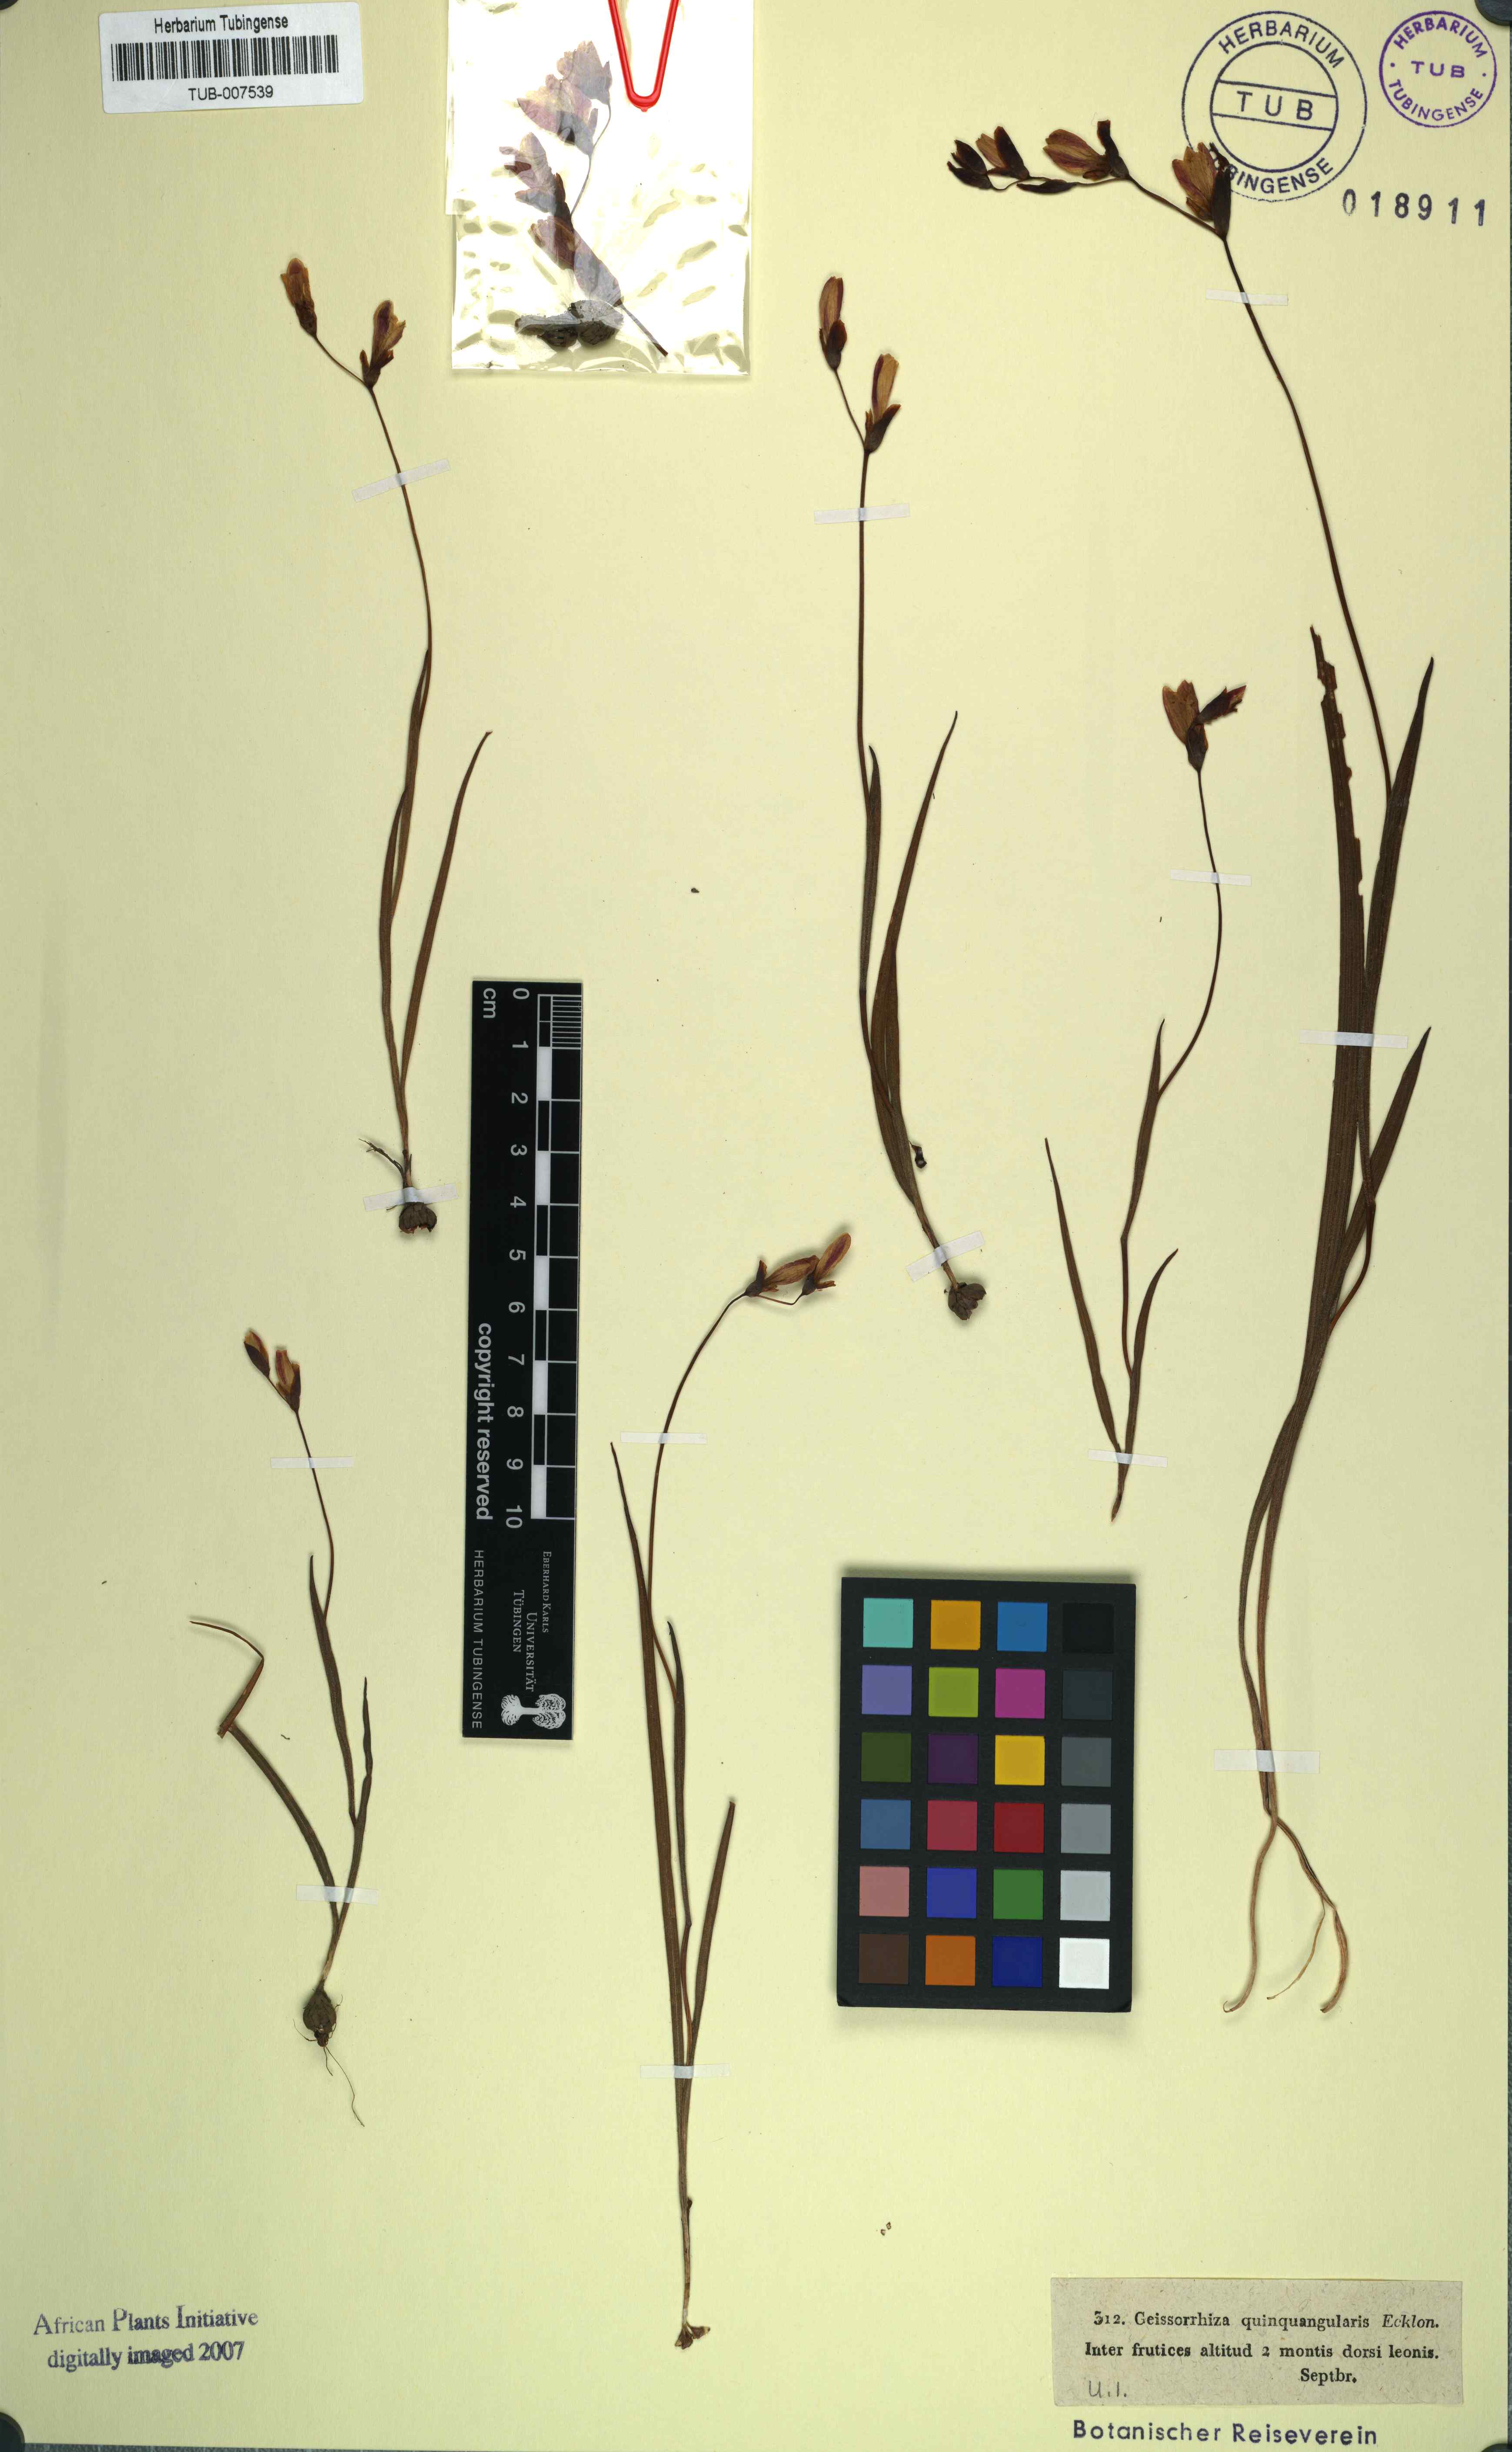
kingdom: Plantae
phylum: Tracheophyta
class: Liliopsida
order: Asparagales
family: Iridaceae
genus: Geissorhiza
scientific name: Geissorhiza ciliaris
